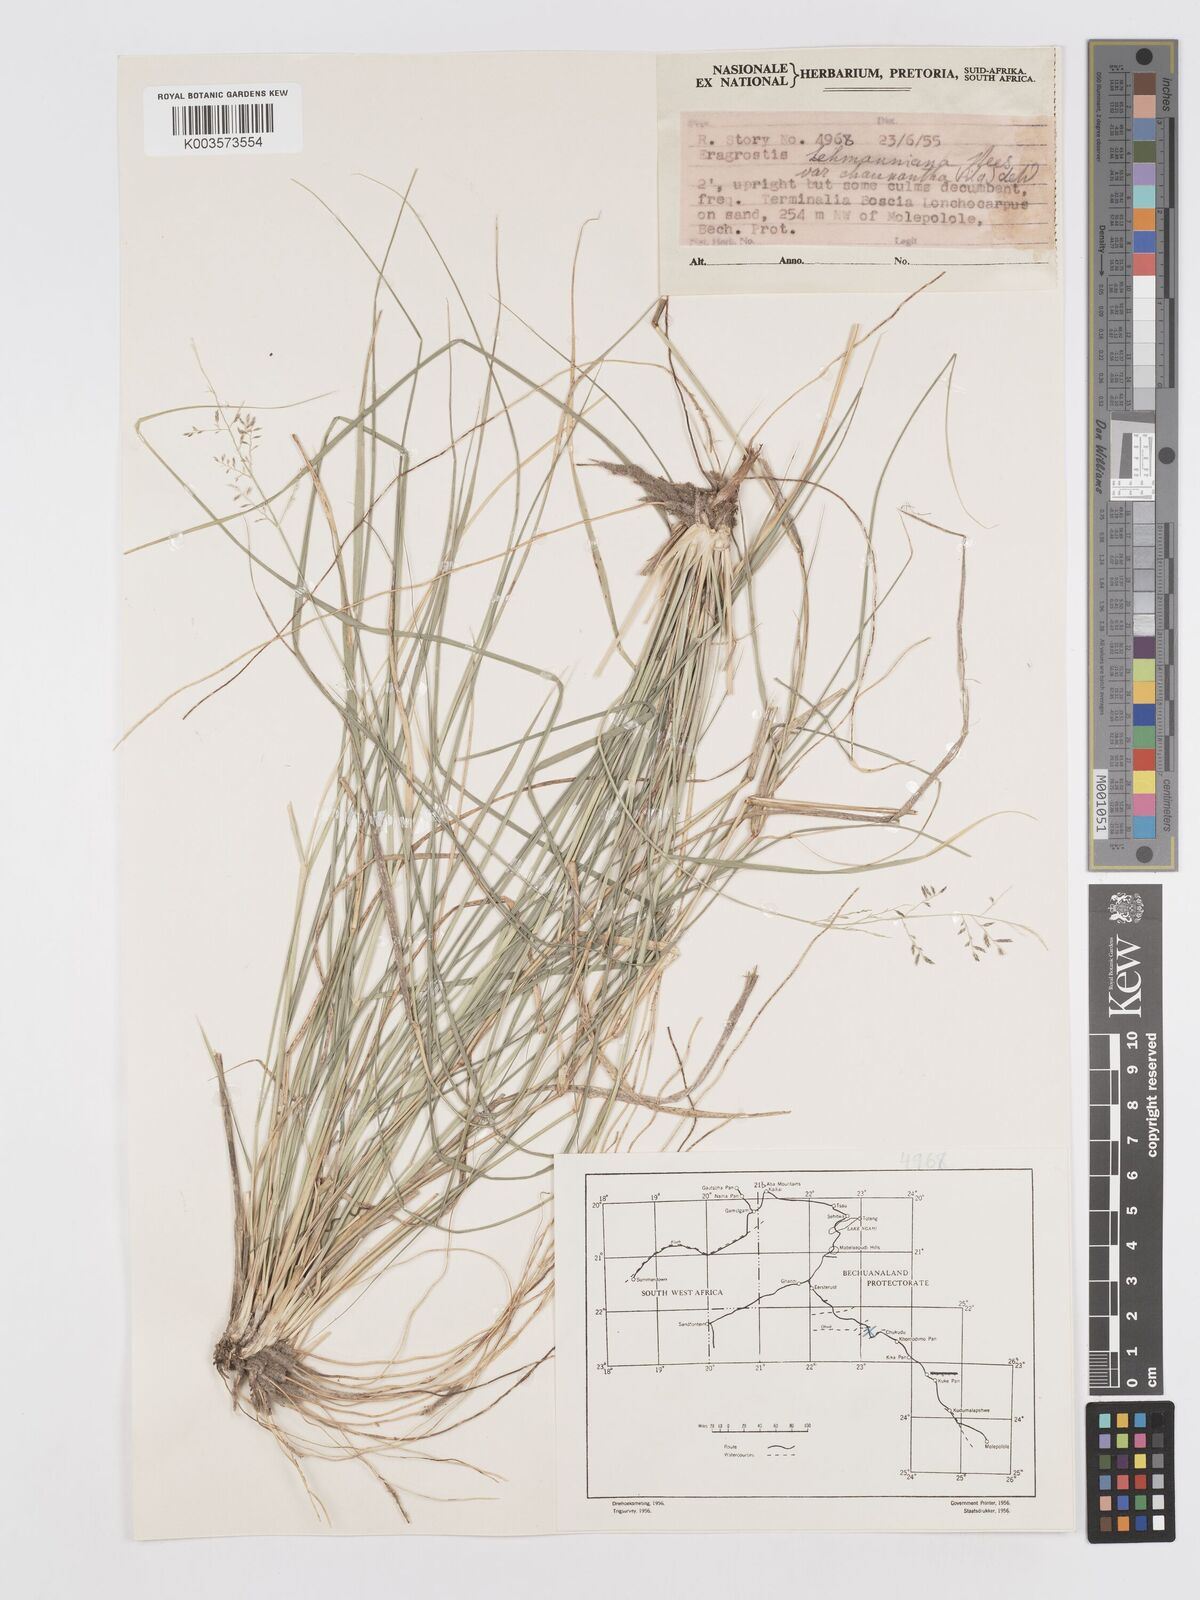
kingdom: Plantae
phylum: Tracheophyta
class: Liliopsida
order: Poales
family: Poaceae
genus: Eragrostis
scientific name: Eragrostis lehmanniana
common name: Lehmann lovegrass
